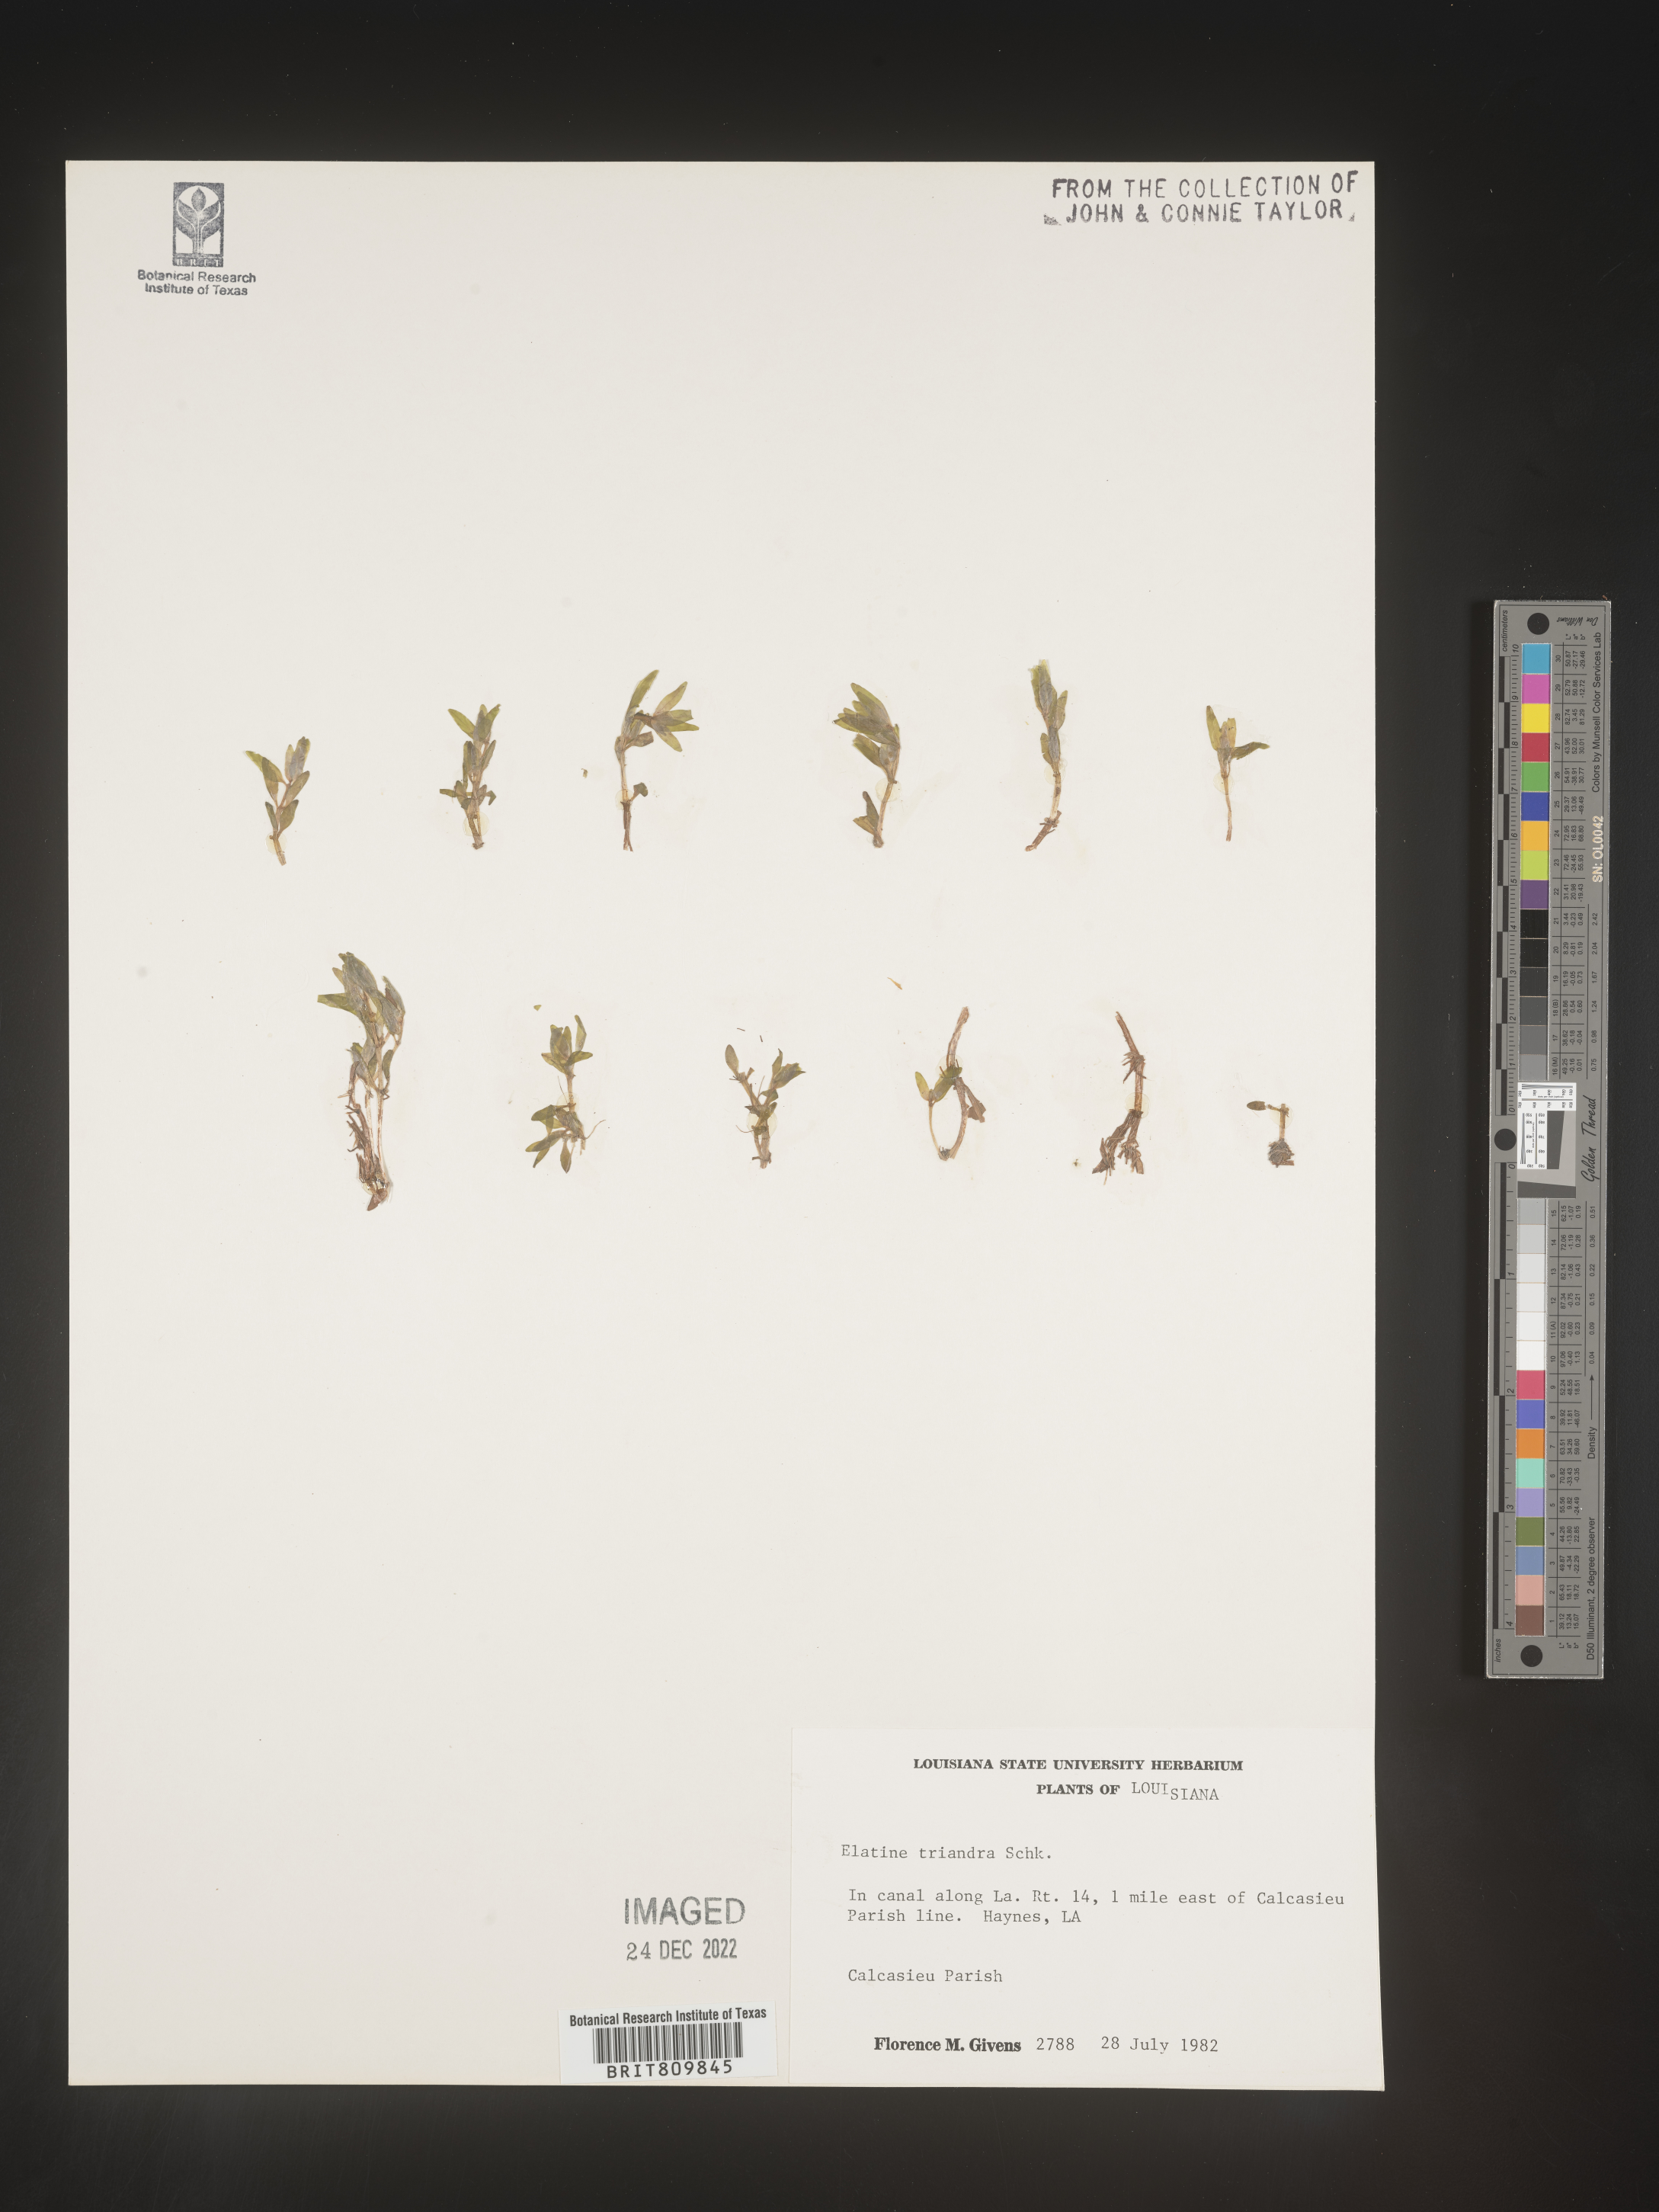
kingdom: Plantae
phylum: Tracheophyta
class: Magnoliopsida
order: Malpighiales
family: Elatinaceae
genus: Elatine
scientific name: Elatine
